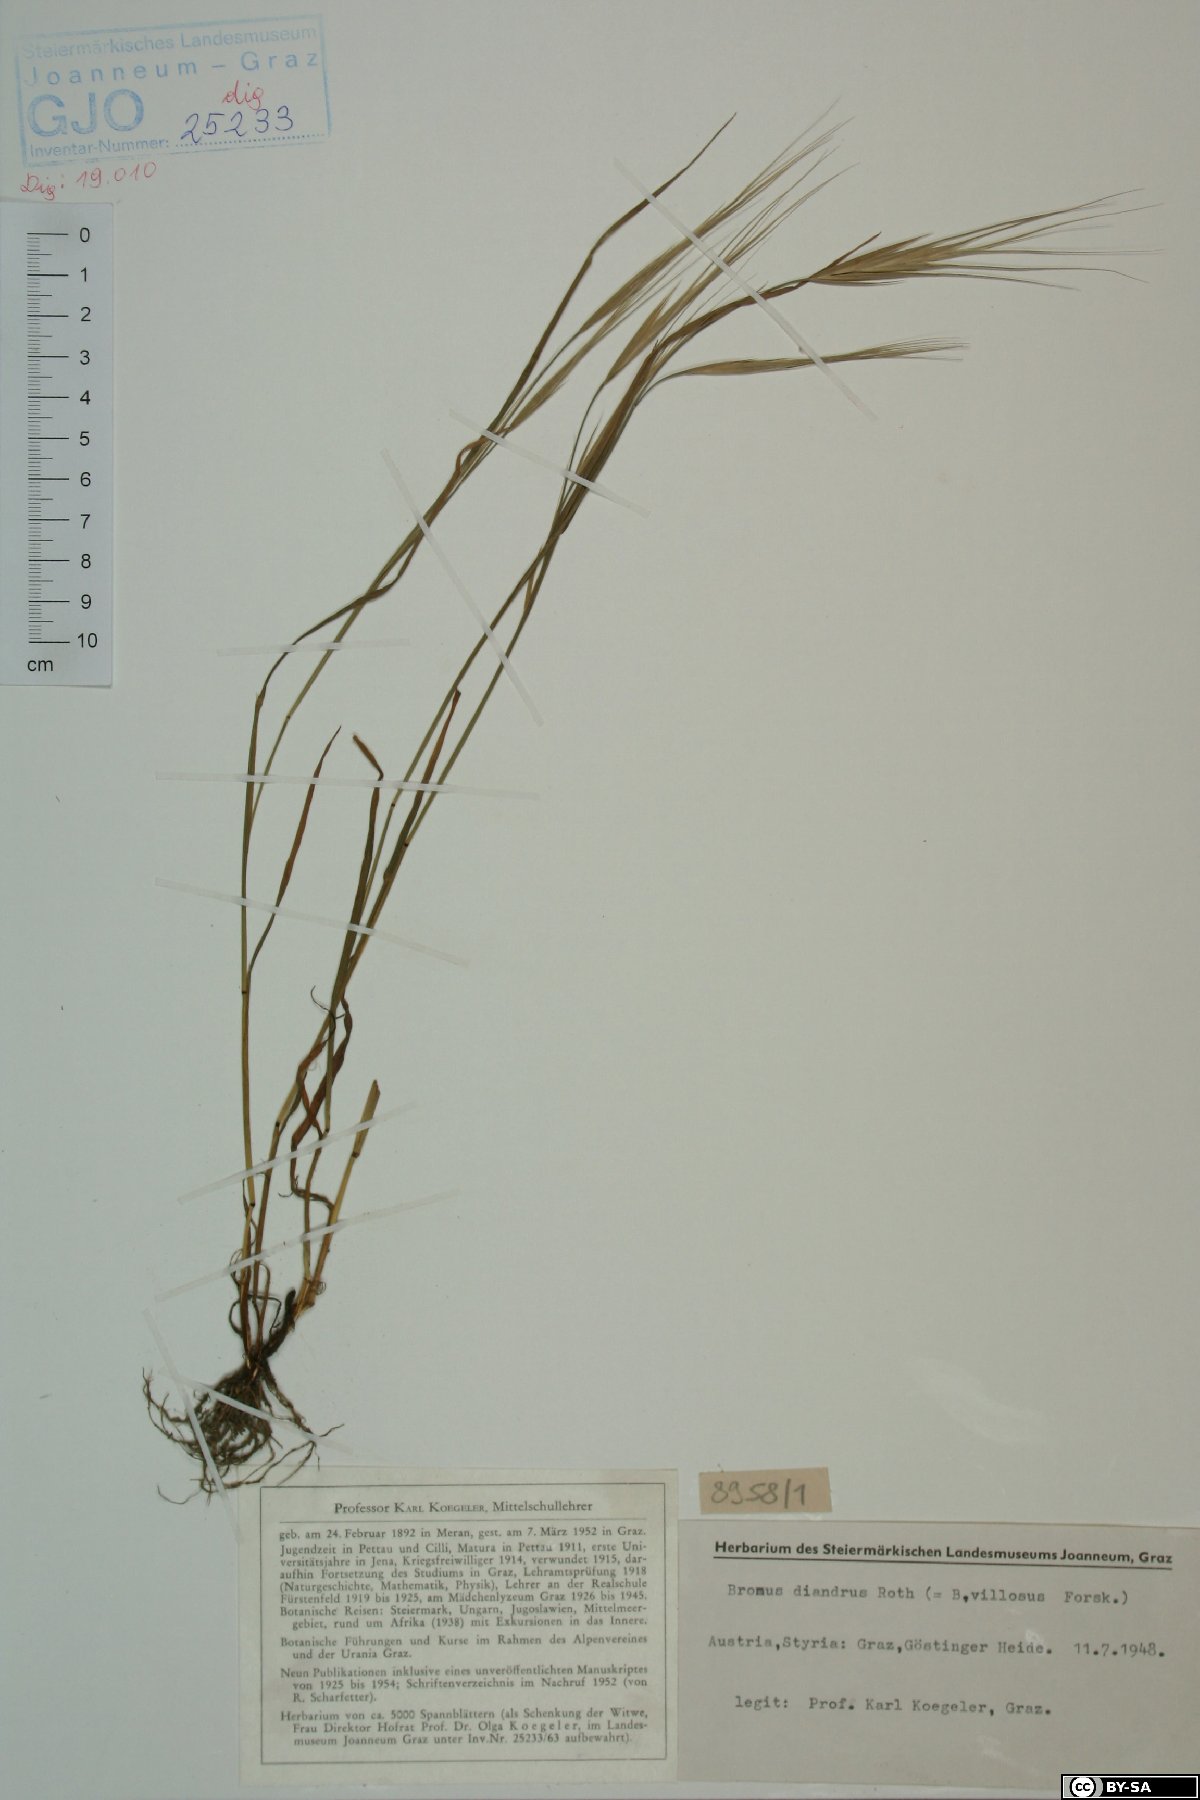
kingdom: Plantae
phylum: Tracheophyta
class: Liliopsida
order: Poales
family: Poaceae
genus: Bromus
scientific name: Bromus diandrus
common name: Ripgut brome
